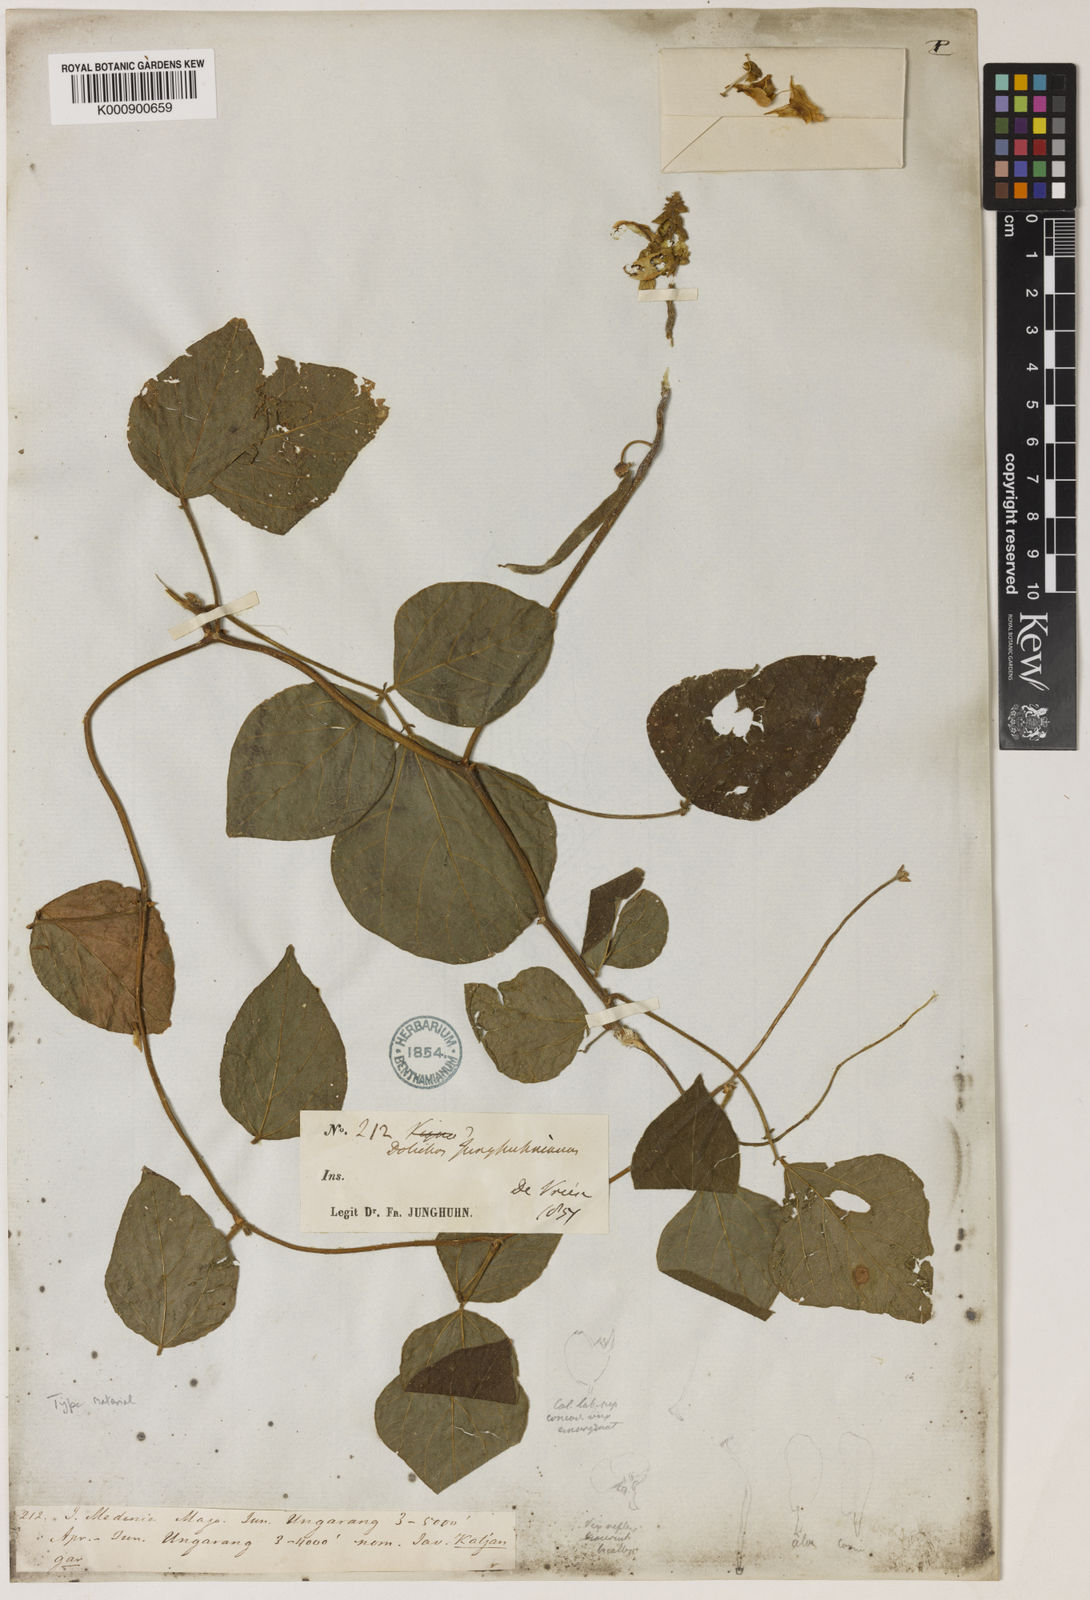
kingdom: Plantae
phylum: Tracheophyta
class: Magnoliopsida
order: Fabales
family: Fabaceae
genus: Dolichos
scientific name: Dolichos junghuhnianus
